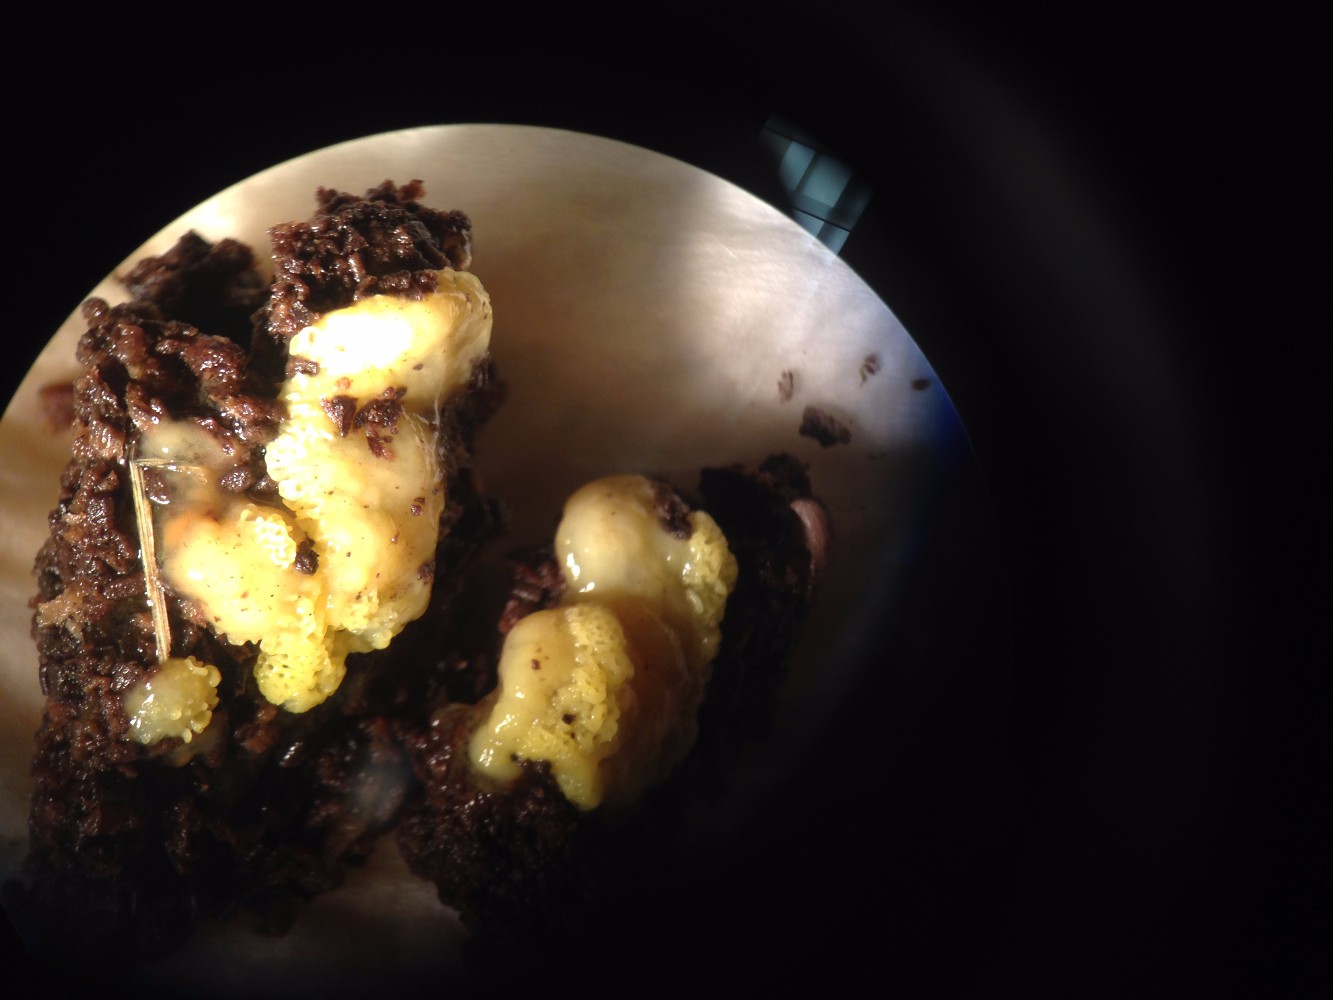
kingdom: Protozoa
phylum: Mycetozoa
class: Protosteliomycetes
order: Ceratiomyxales
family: Ceratiomyxaceae
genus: Ceratiomyxa
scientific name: Ceratiomyxa fruticulosa
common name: Honeycomb coral slime mold
